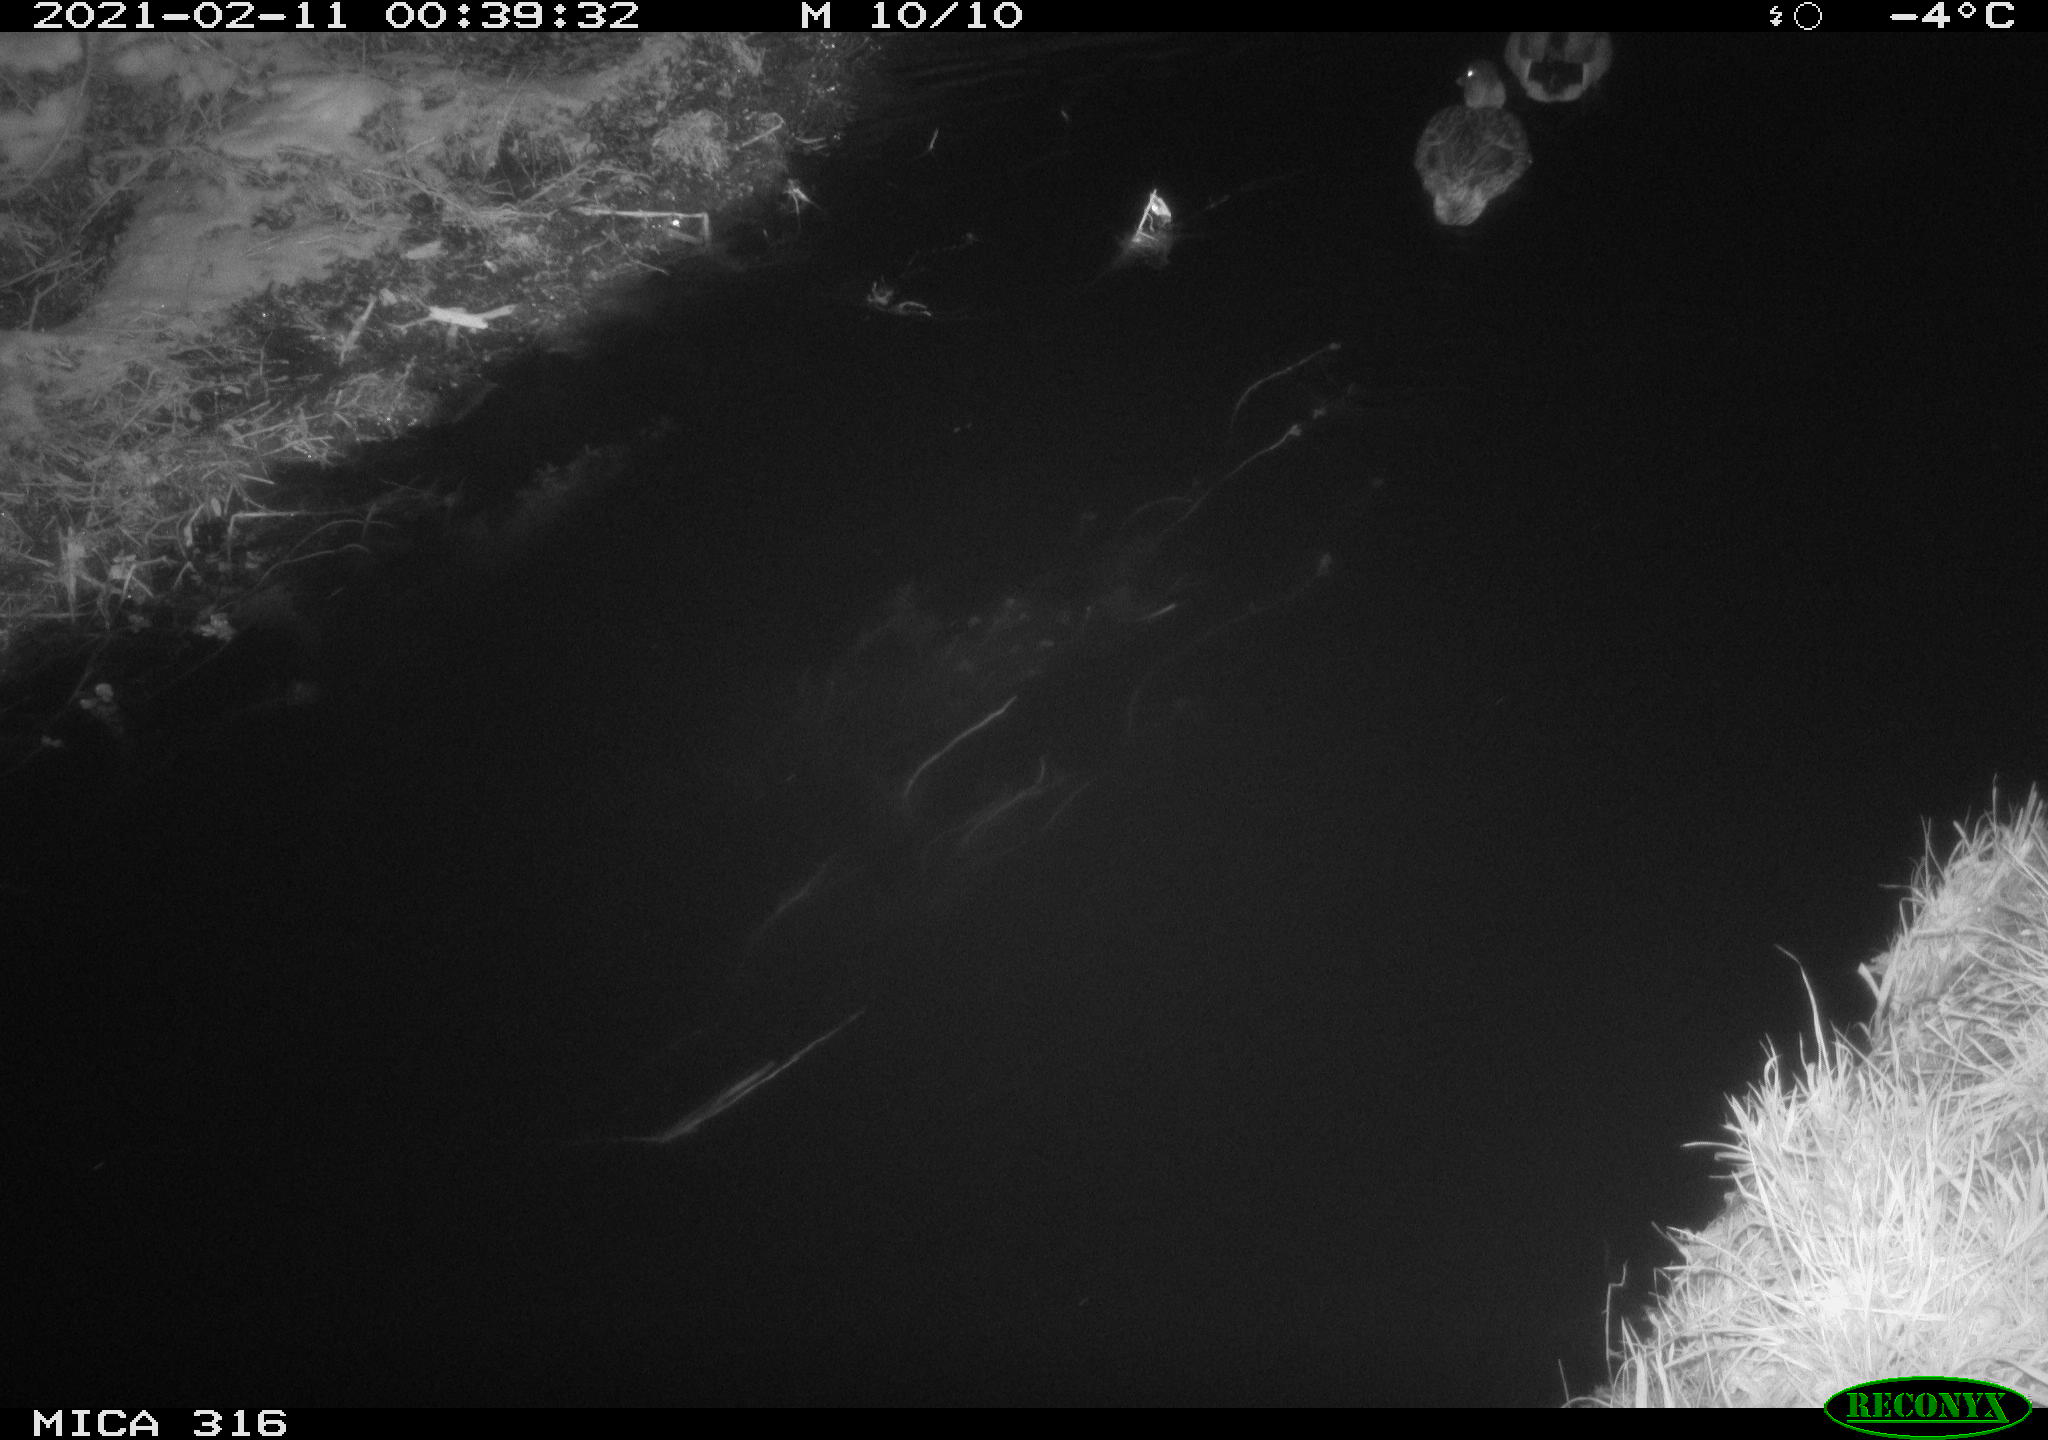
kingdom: Animalia
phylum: Chordata
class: Aves
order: Anseriformes
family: Anatidae
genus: Anas
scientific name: Anas platyrhynchos
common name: Mallard
